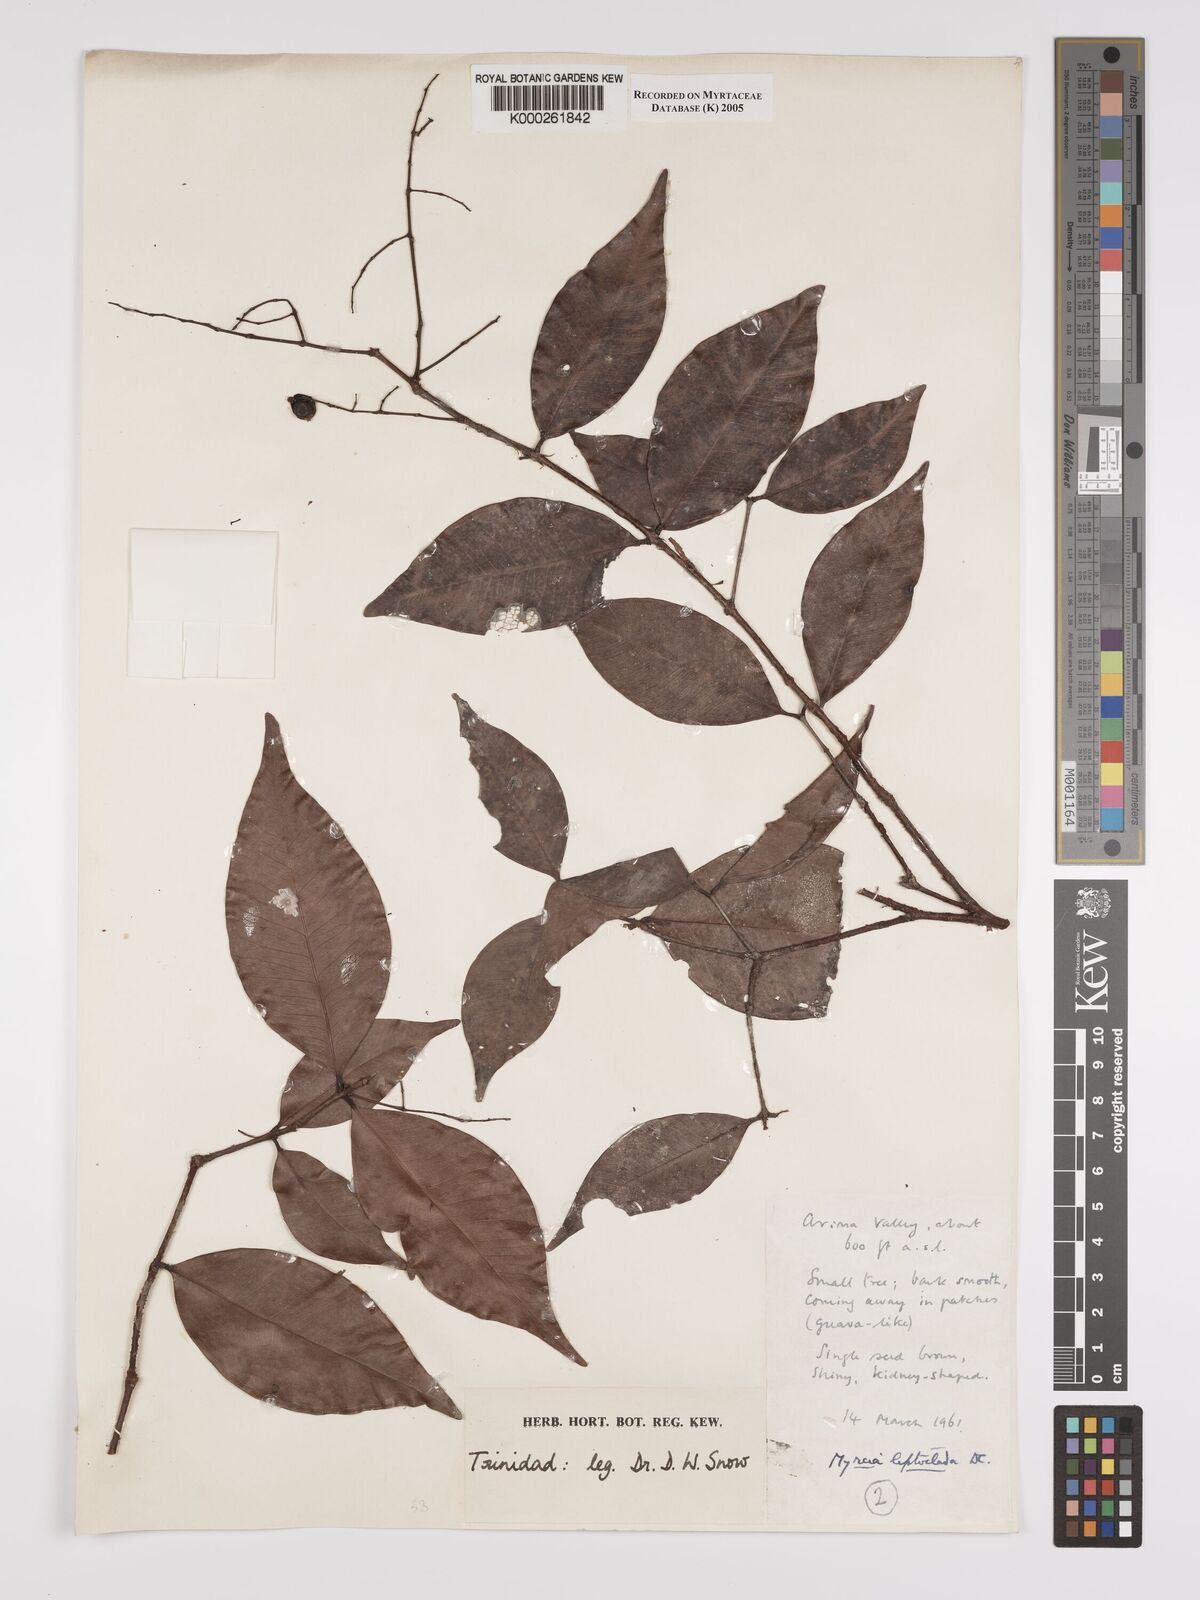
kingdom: Plantae
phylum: Tracheophyta
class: Magnoliopsida
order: Myrtales
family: Myrtaceae
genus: Myrcia
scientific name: Myrcia amazonica
